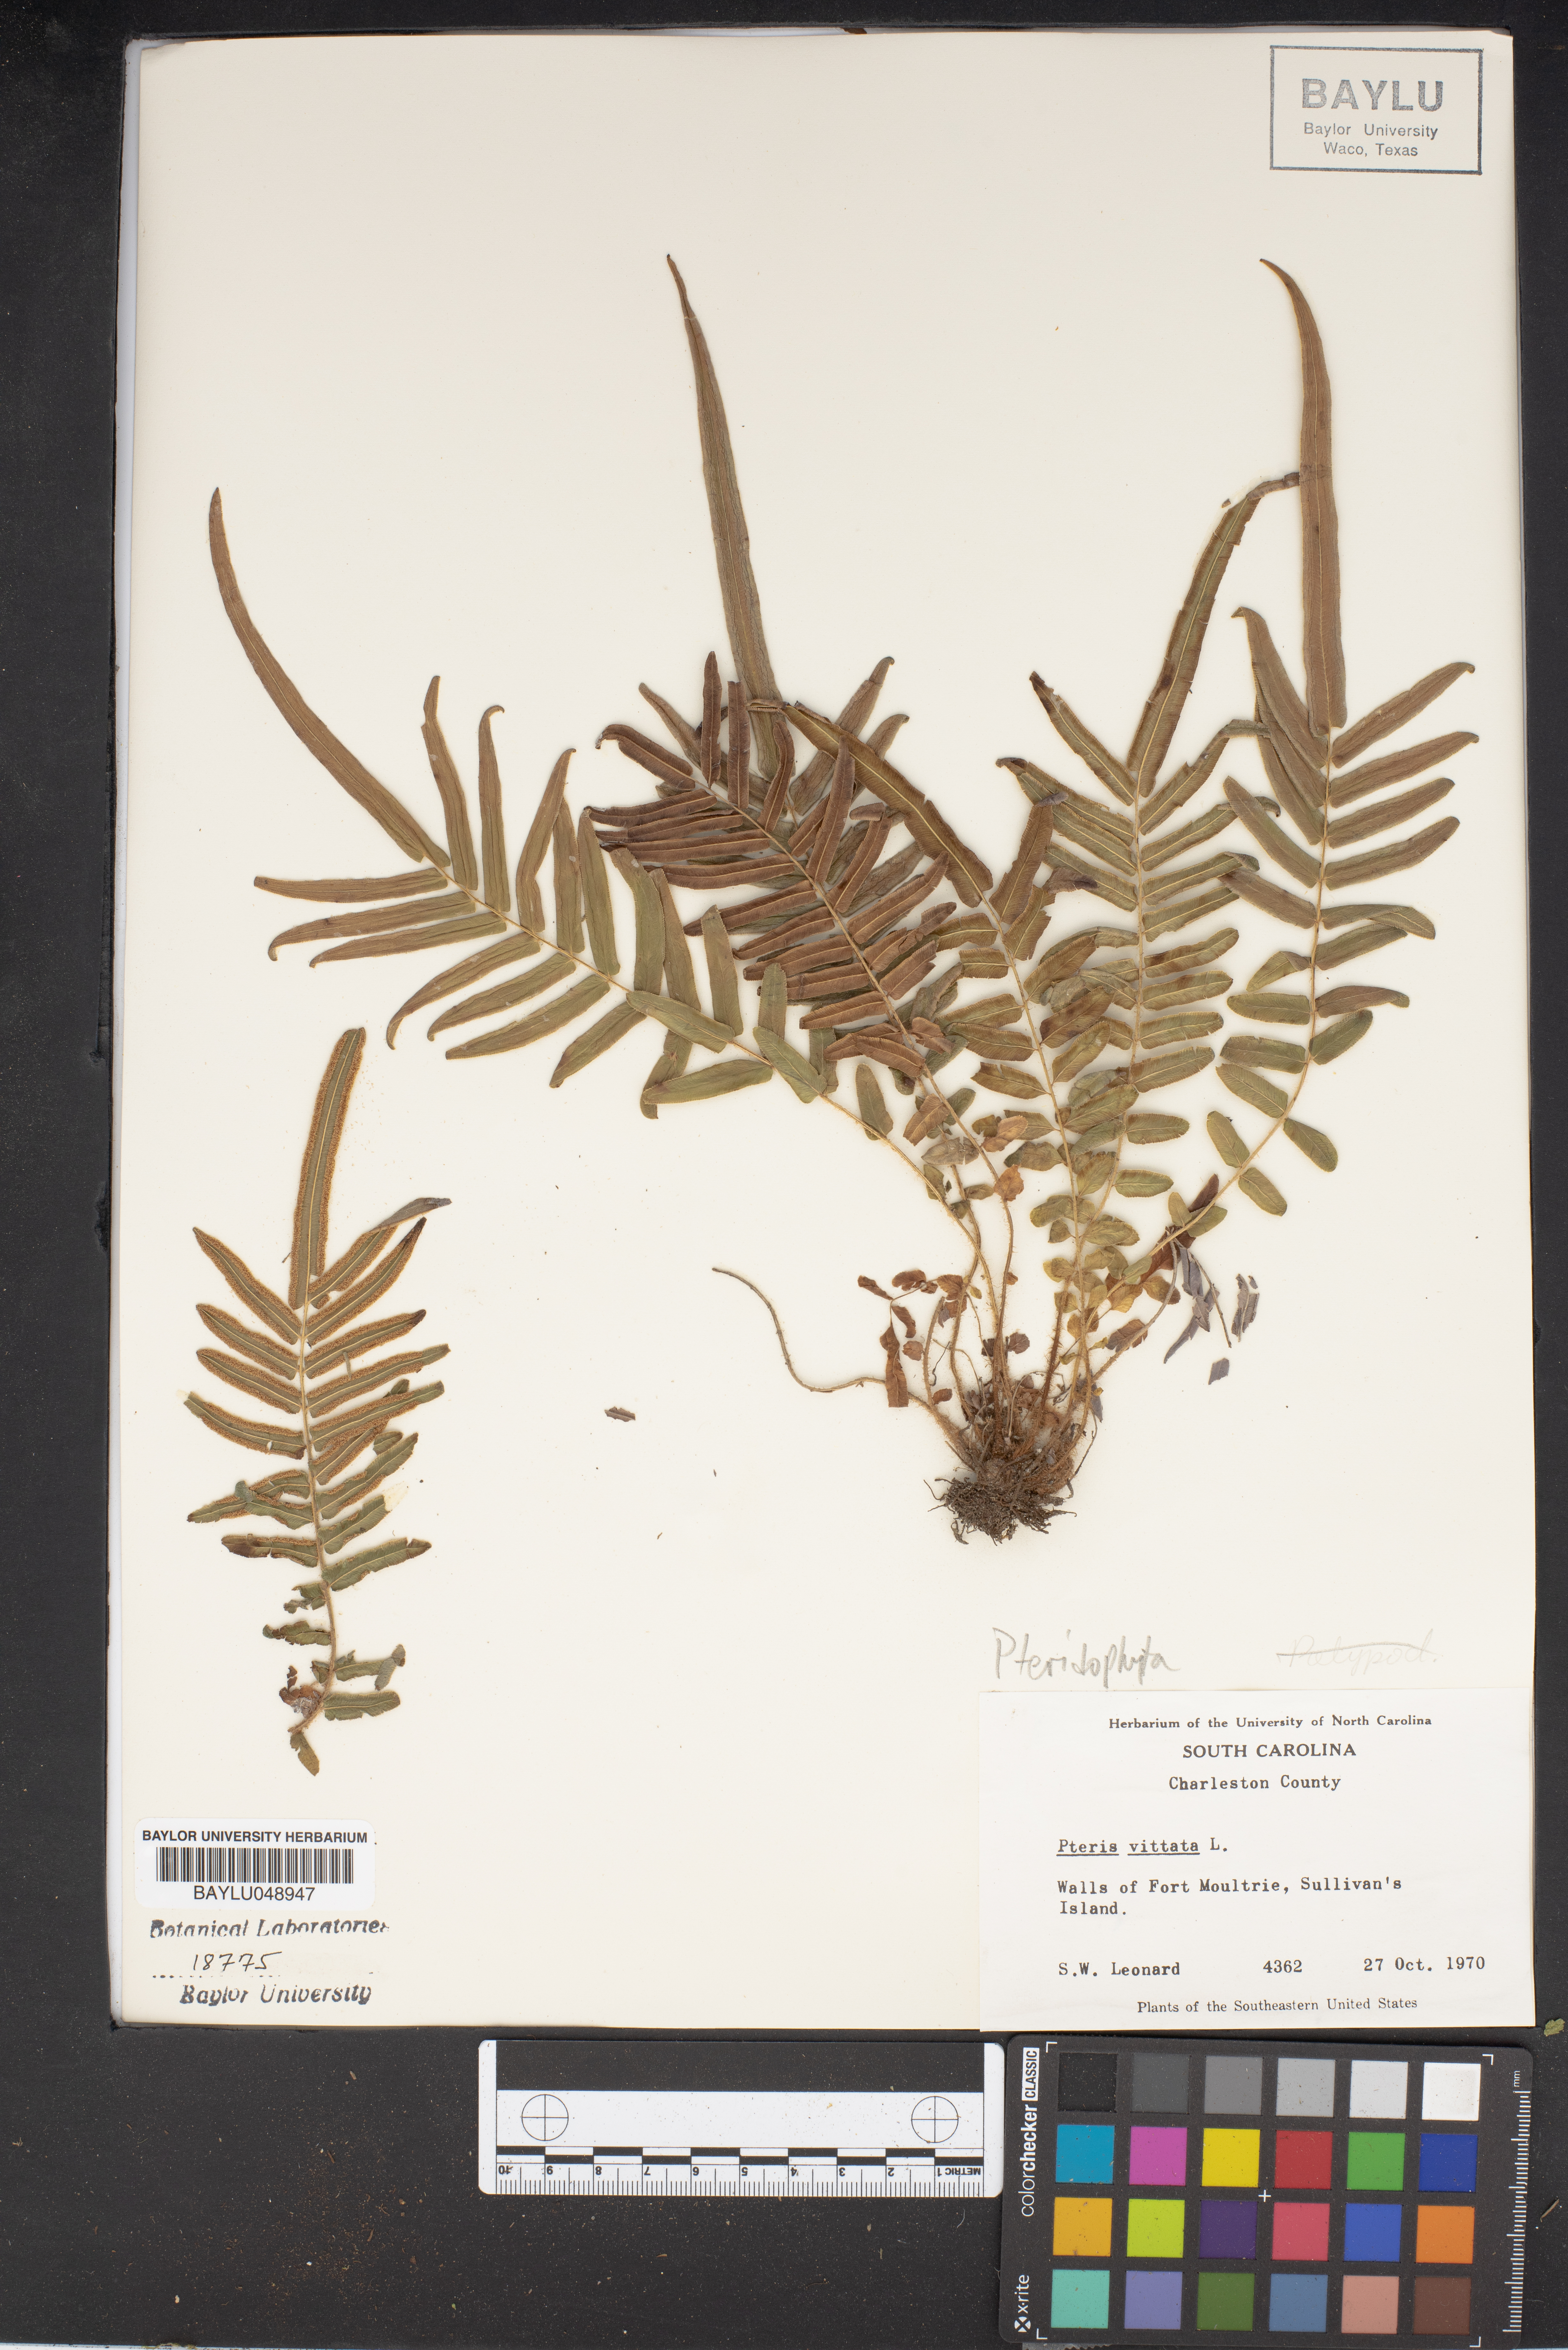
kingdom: Plantae
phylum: Tracheophyta
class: Polypodiopsida
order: Polypodiales
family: Pteridaceae
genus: Pteris
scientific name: Pteris vittata
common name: Ladder brake
